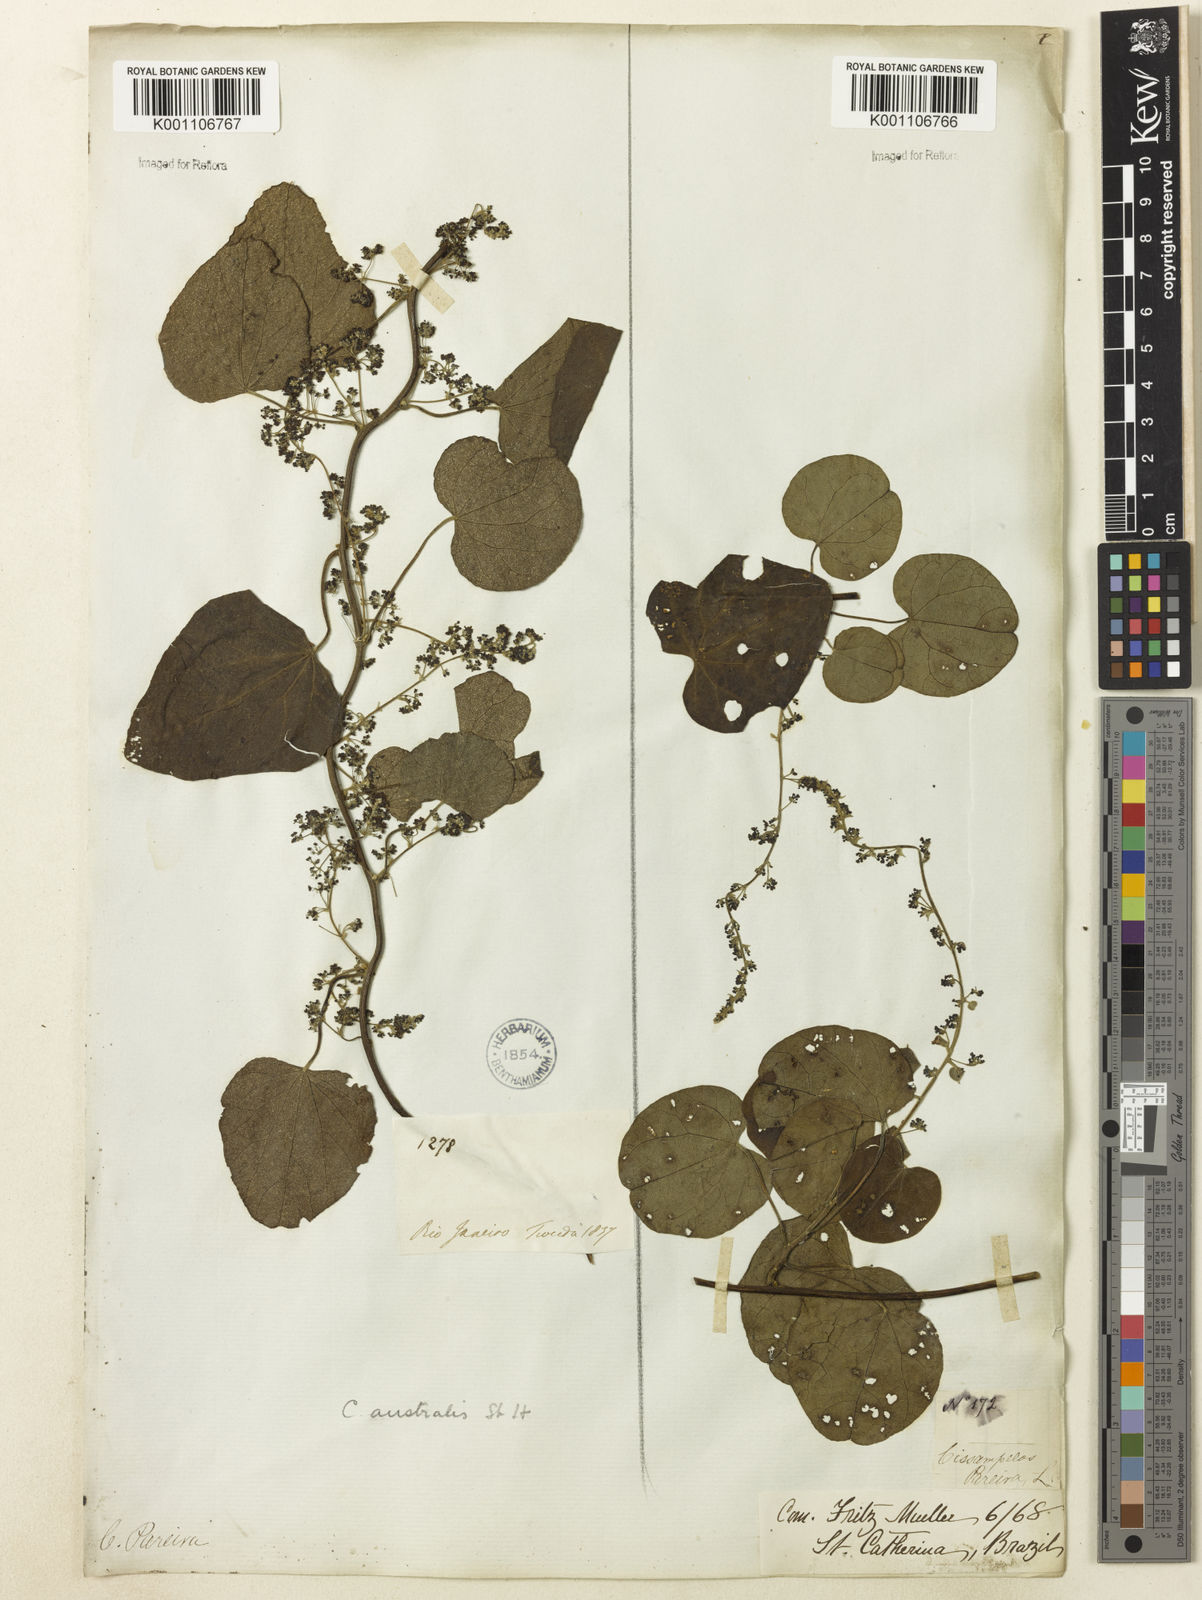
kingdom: Plantae
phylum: Tracheophyta
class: Magnoliopsida
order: Ranunculales
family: Menispermaceae
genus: Cissampelos
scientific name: Cissampelos pareira
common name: Velvetleaf
